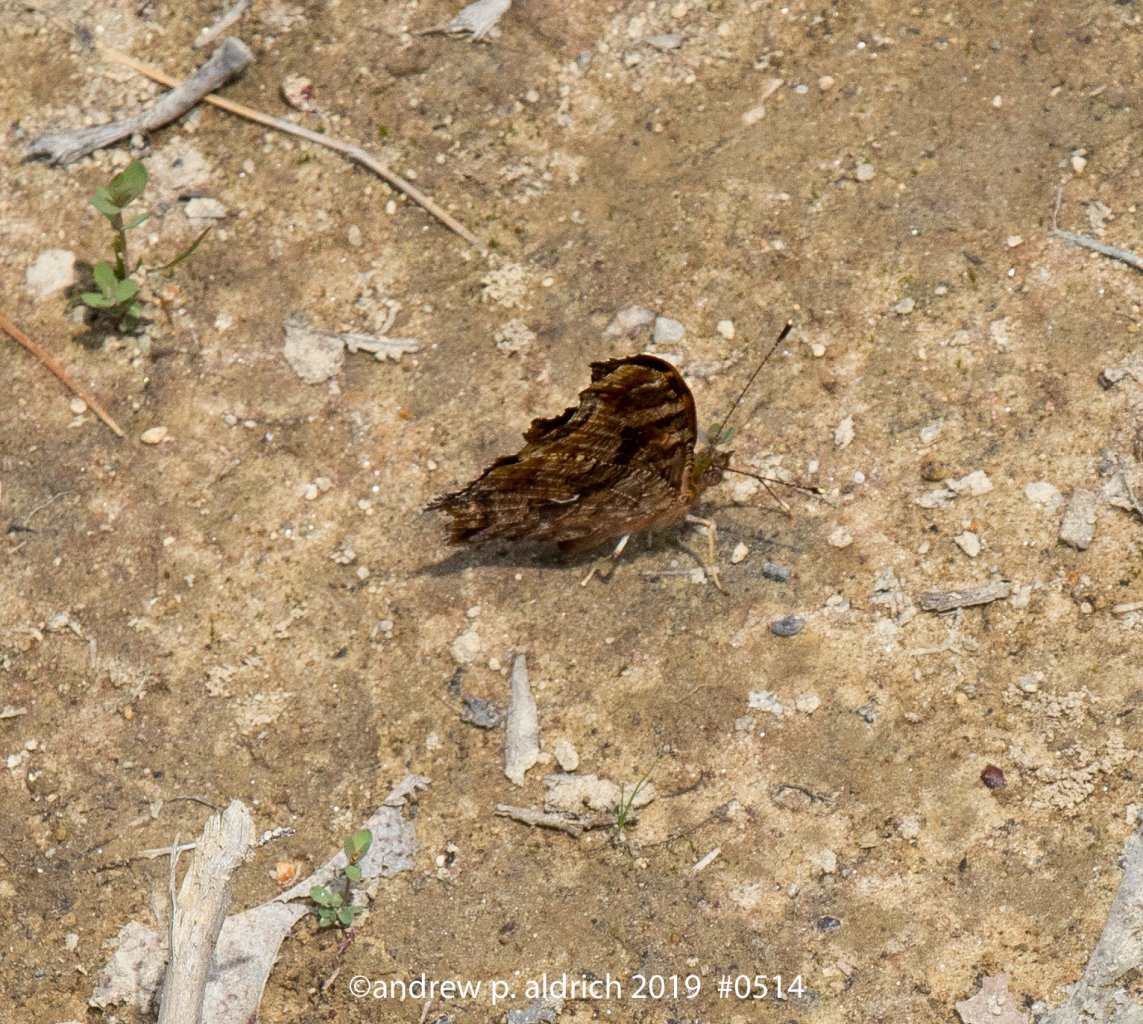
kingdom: Animalia
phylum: Arthropoda
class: Insecta
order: Lepidoptera
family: Nymphalidae
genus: Polygonia
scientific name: Polygonia comma
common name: Eastern Comma
